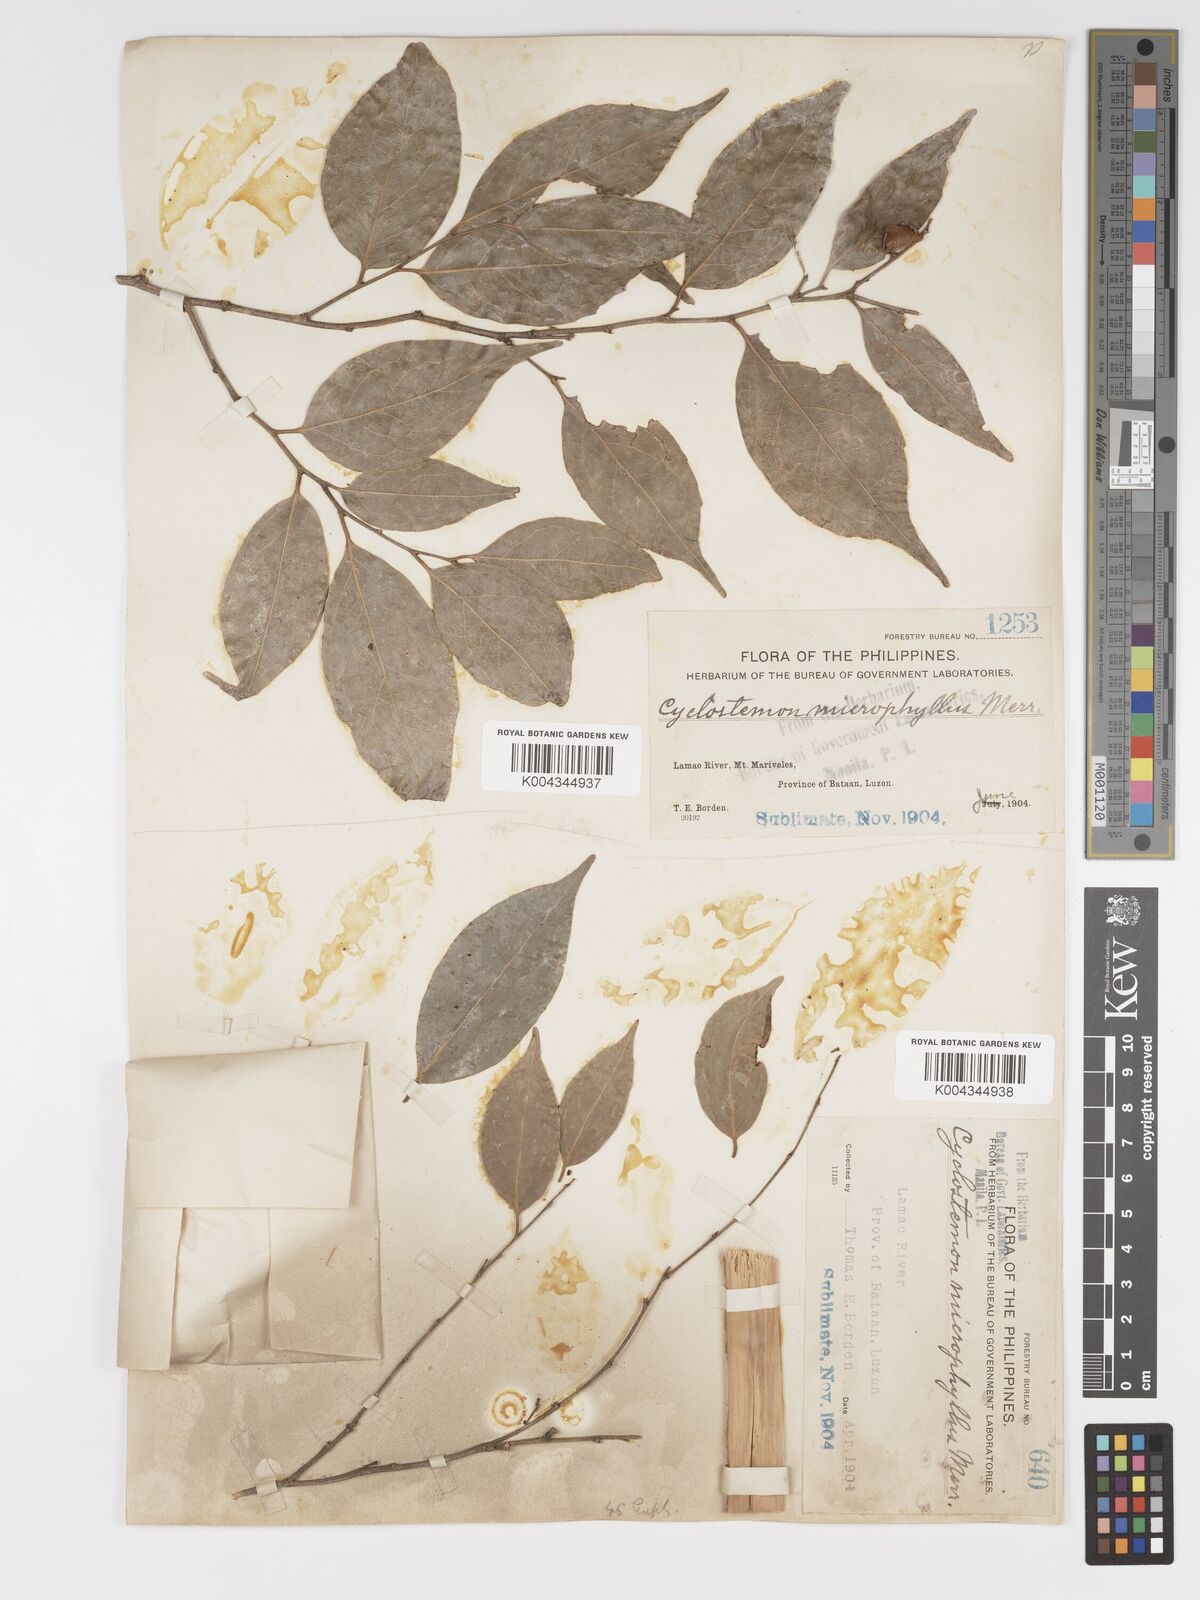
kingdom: Plantae
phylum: Tracheophyta
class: Magnoliopsida
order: Malpighiales
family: Putranjivaceae
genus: Drypetes
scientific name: Drypetes microphylla
